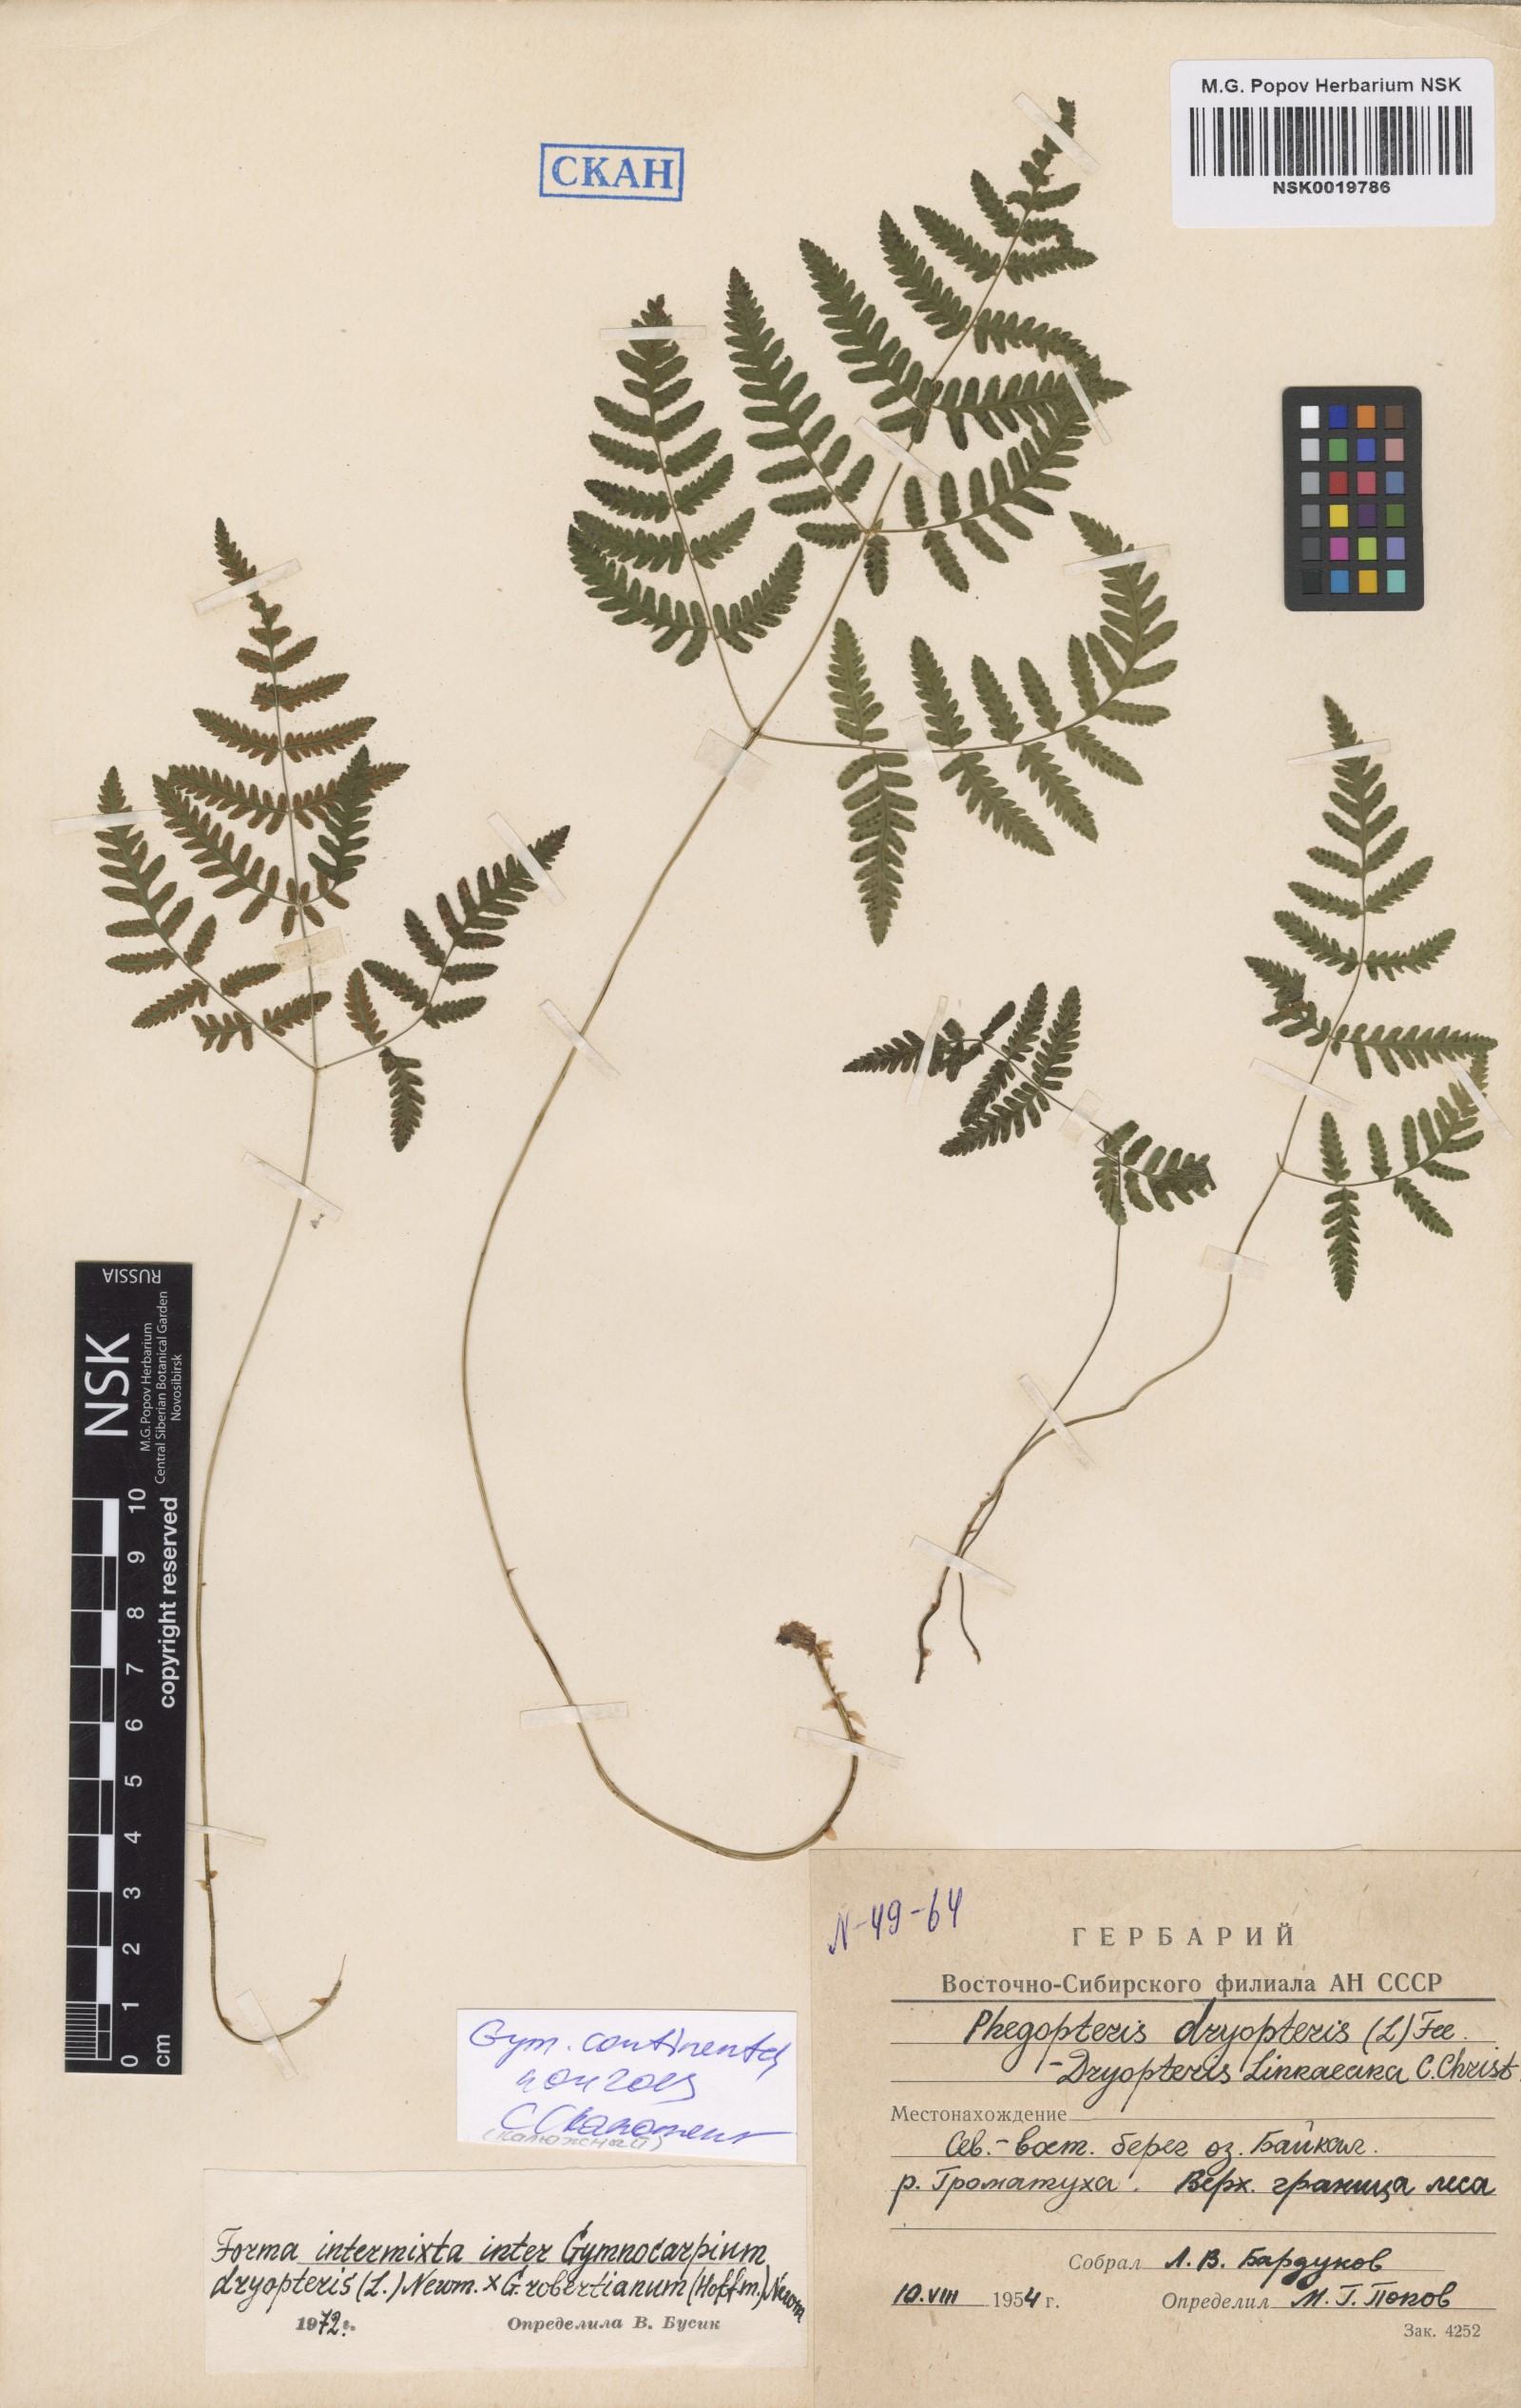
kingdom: Plantae
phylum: Tracheophyta
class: Polypodiopsida
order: Polypodiales
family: Cystopteridaceae
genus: Gymnocarpium
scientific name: Gymnocarpium continentale
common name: Asian oak fern
